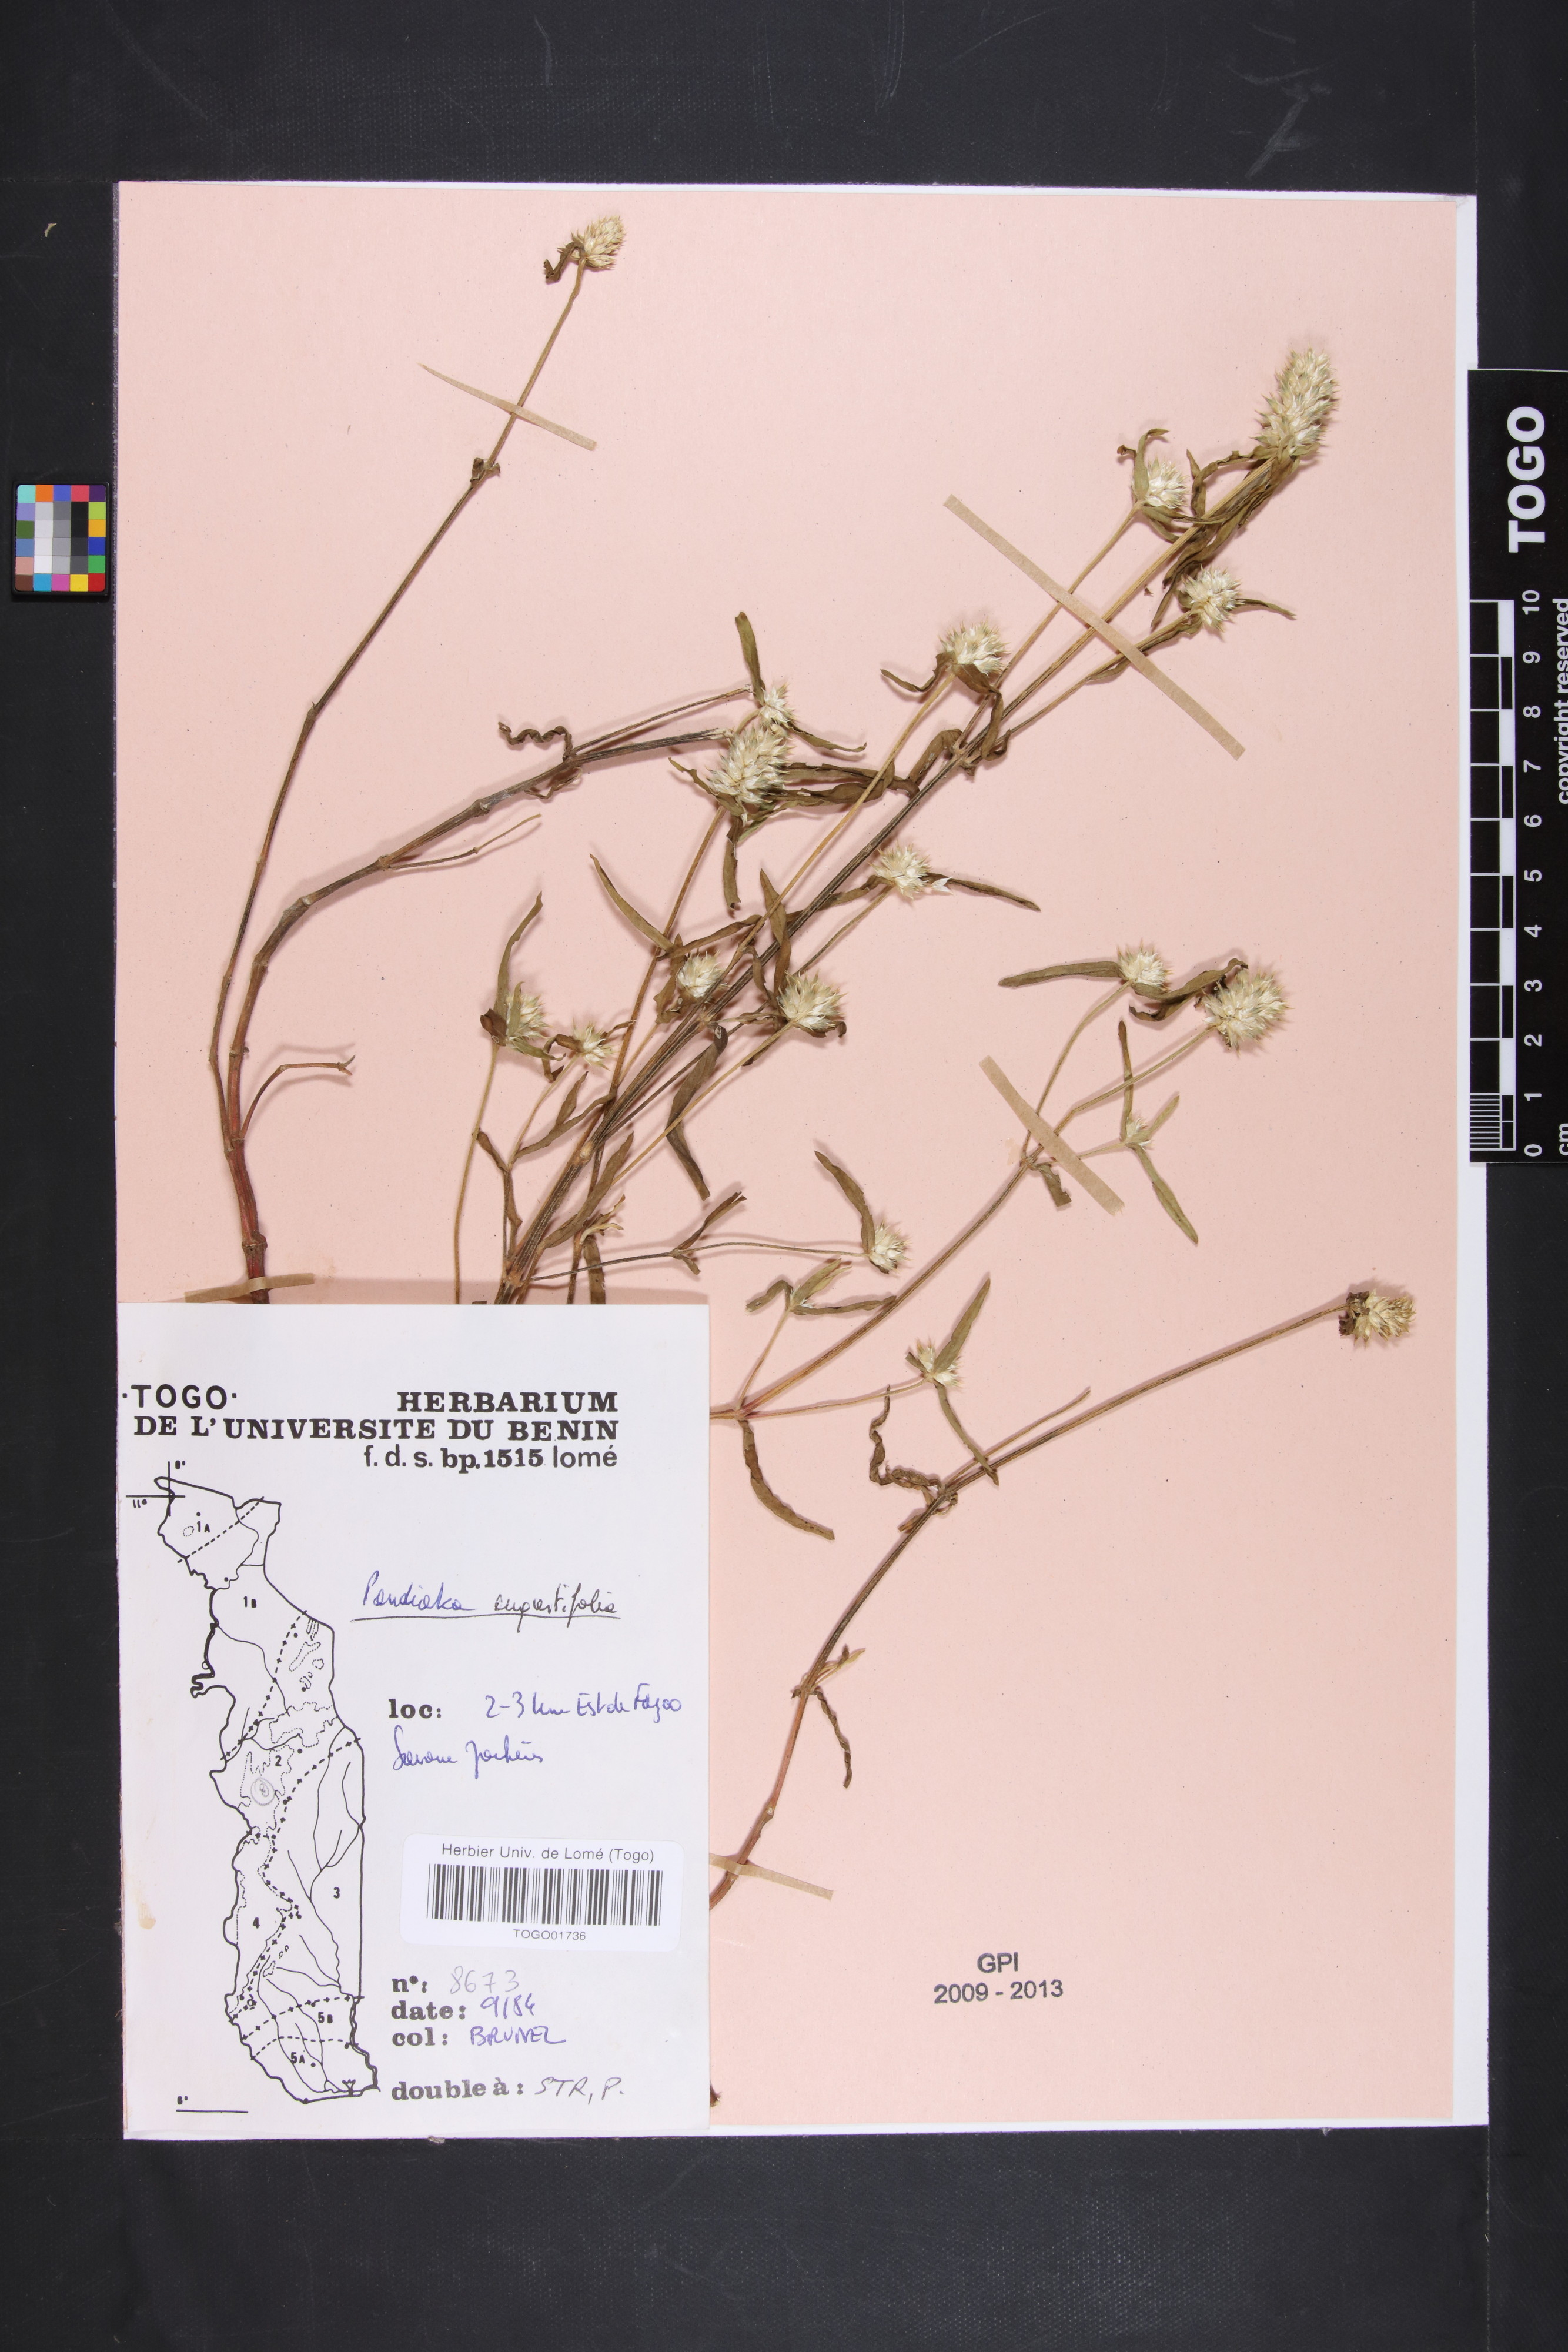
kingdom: Plantae
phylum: Tracheophyta
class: Magnoliopsida
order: Caryophyllales
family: Amaranthaceae
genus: Pandiaka
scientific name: Pandiaka angustifolia
